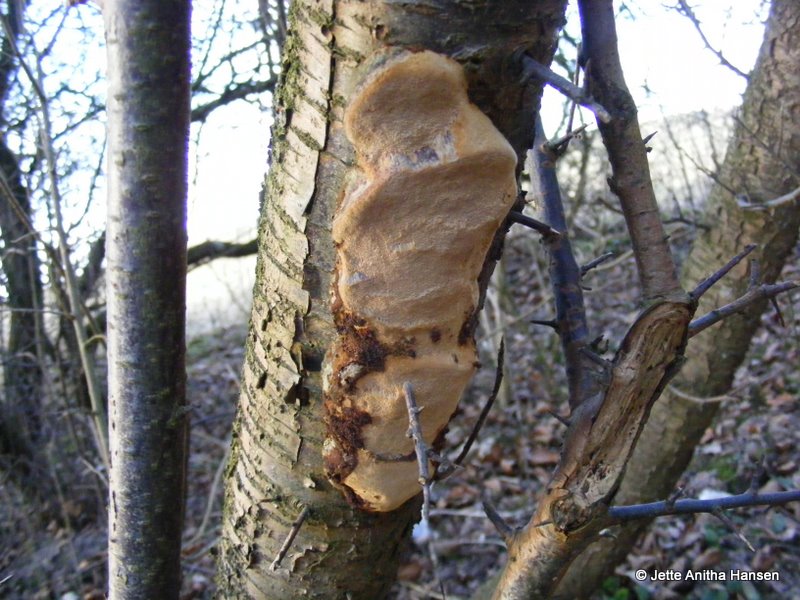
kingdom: Fungi
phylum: Basidiomycota
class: Agaricomycetes
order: Hymenochaetales
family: Hymenochaetaceae
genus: Phellinus
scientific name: Phellinus pomaceus
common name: blomme-ildporesvamp
